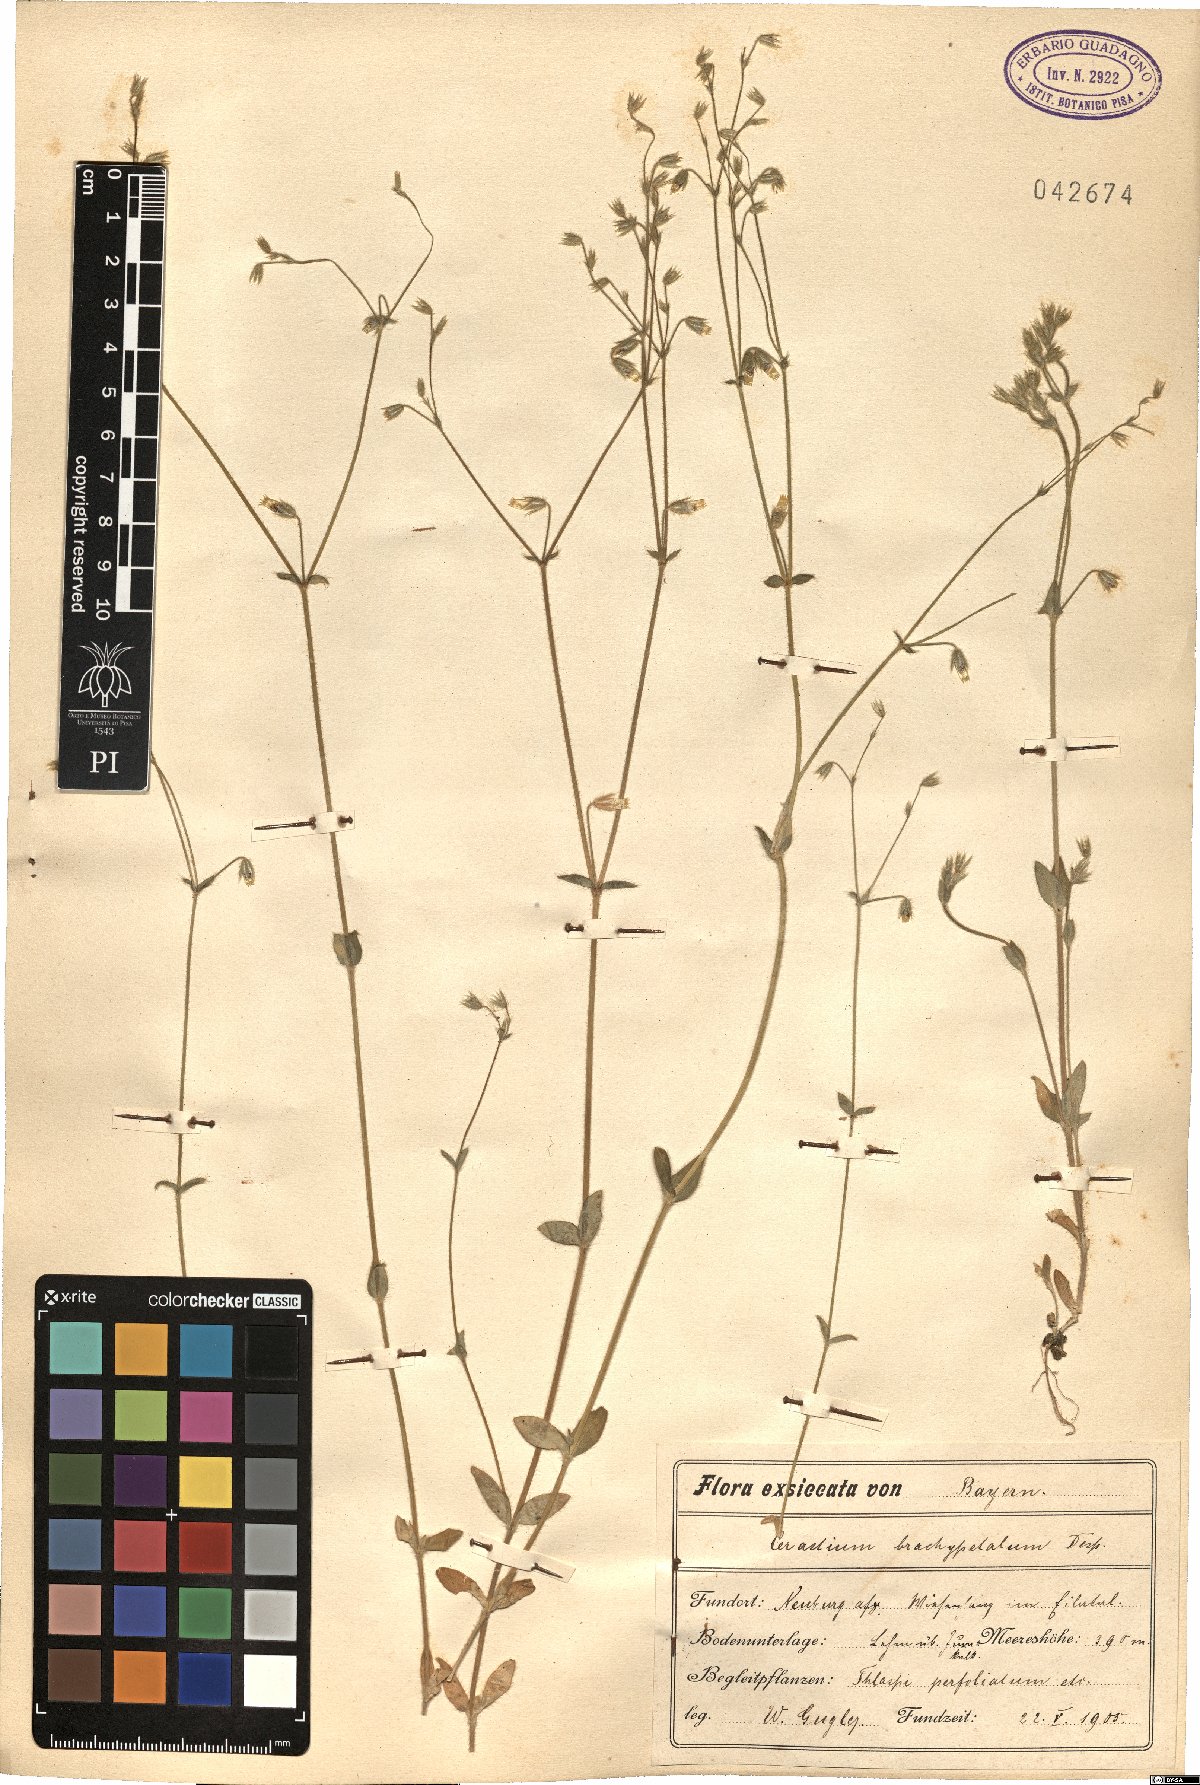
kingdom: Plantae
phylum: Tracheophyta
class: Magnoliopsida
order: Caryophyllales
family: Caryophyllaceae
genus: Cerastium
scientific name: Cerastium brachypetalum
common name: Grey mouse-ear
